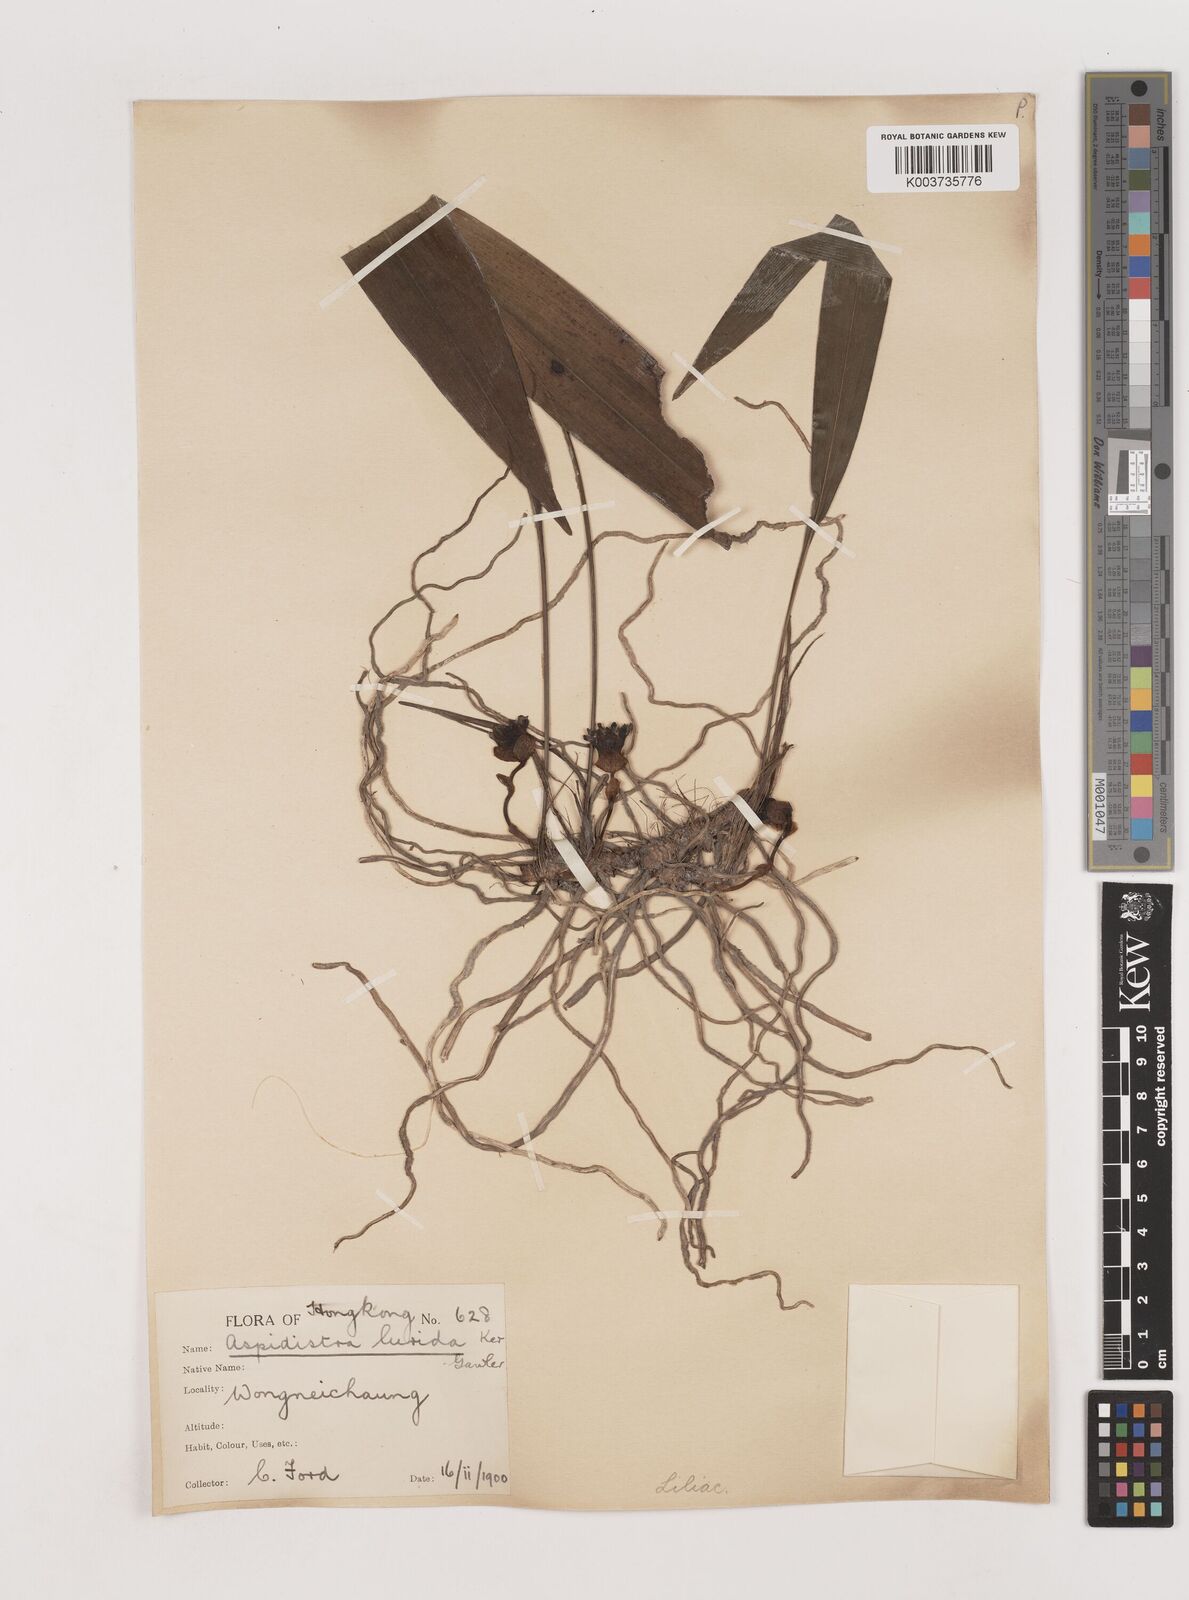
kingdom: Plantae
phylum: Tracheophyta
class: Liliopsida
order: Asparagales
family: Asparagaceae
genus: Aspidistra
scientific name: Aspidistra lurida
